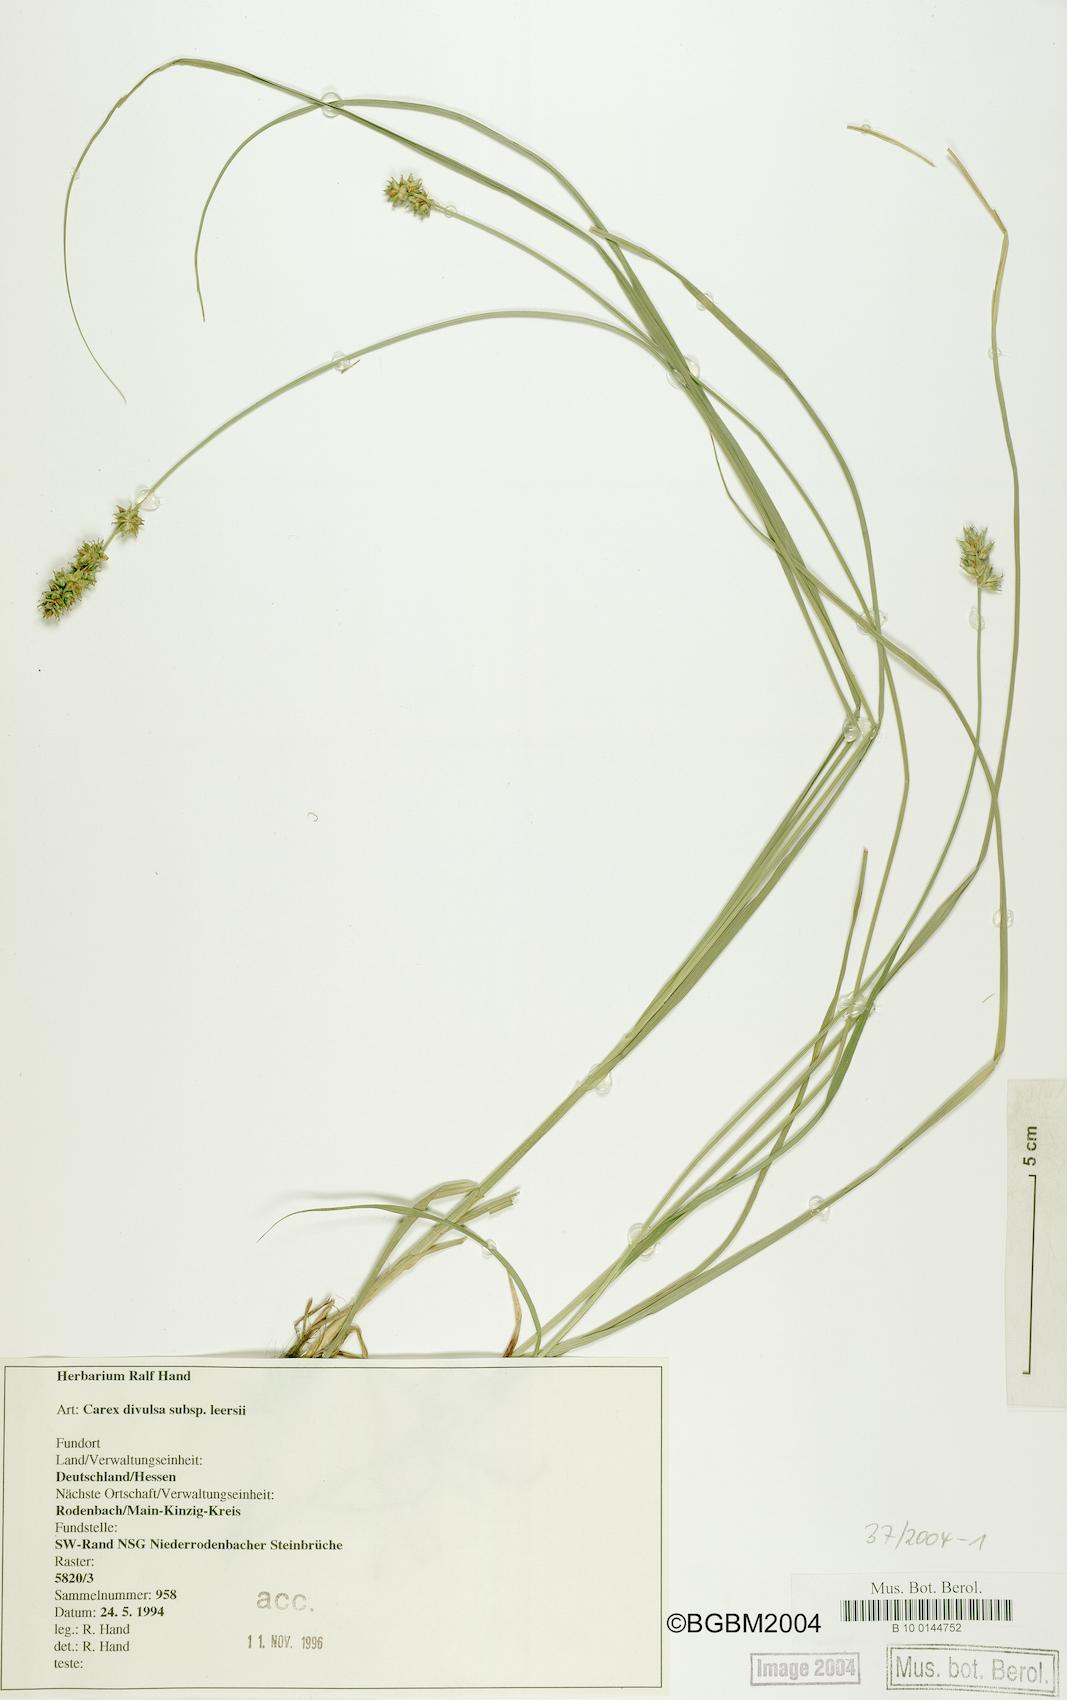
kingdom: Plantae
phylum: Tracheophyta
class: Liliopsida
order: Poales
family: Cyperaceae
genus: Carex
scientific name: Carex leersii
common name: Leers' sedge
